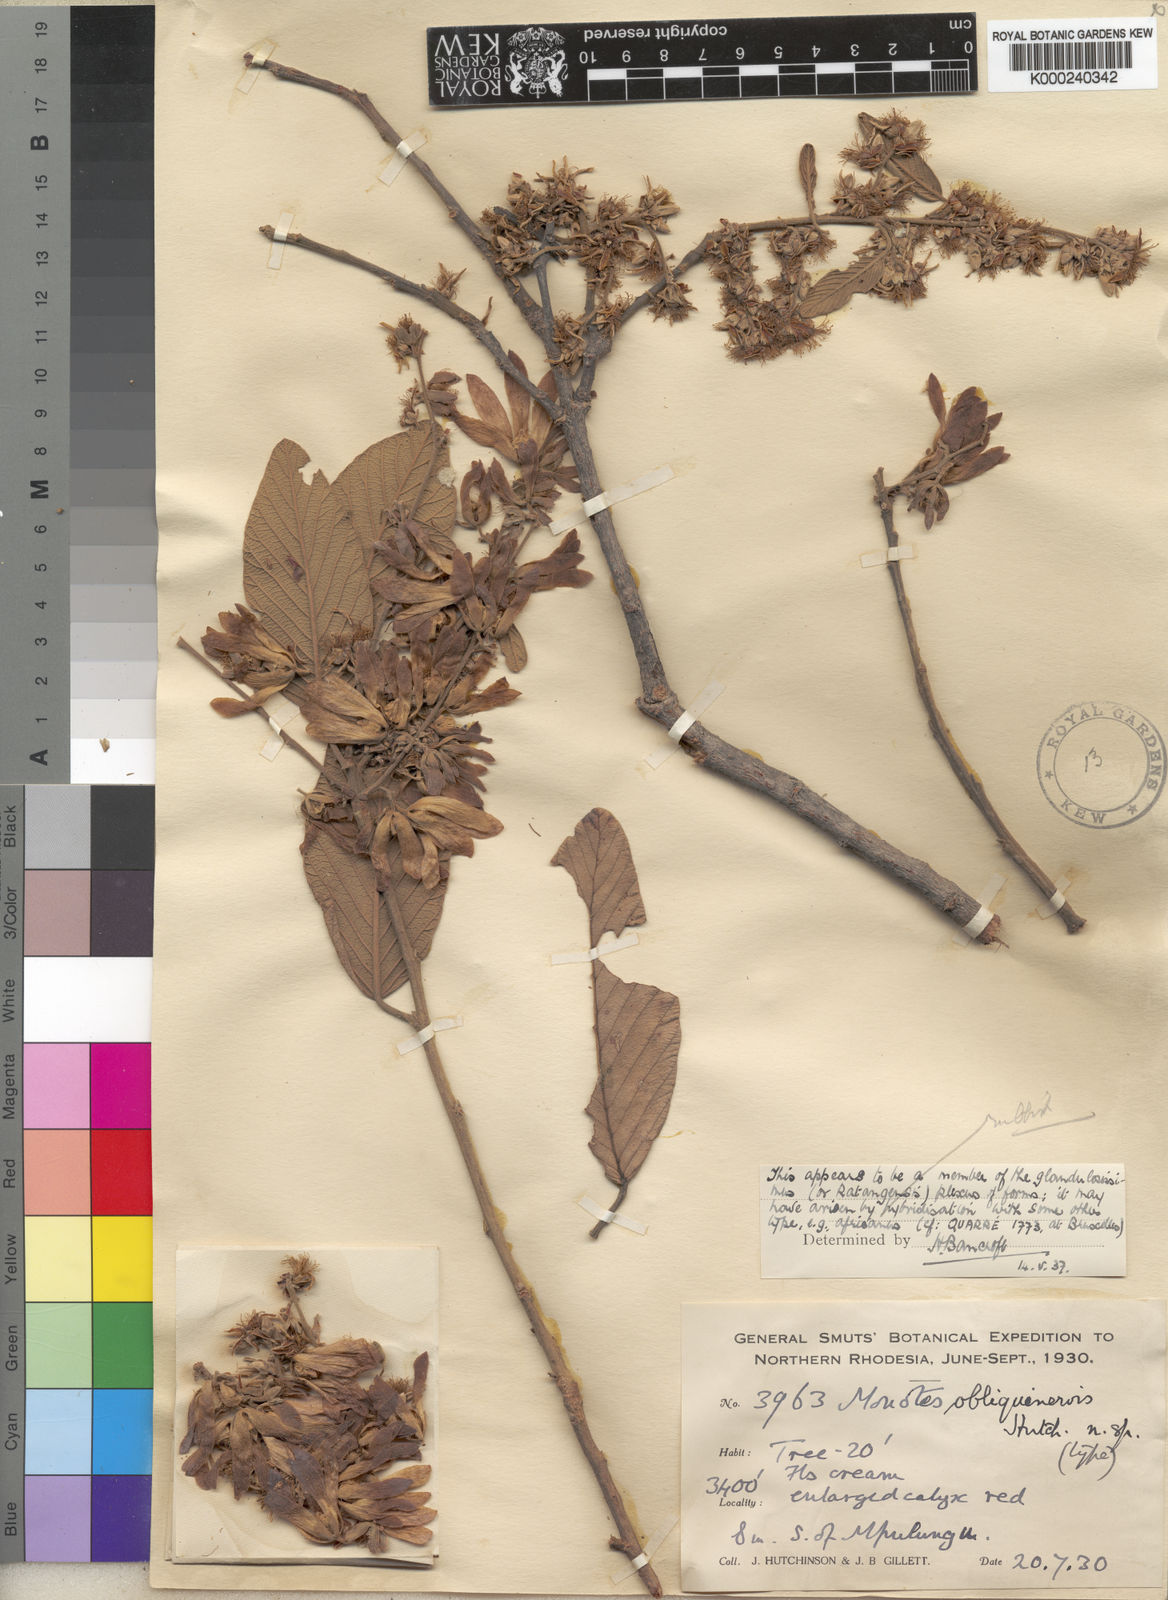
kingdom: Plantae
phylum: Tracheophyta
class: Magnoliopsida
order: Malvales
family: Dipterocarpaceae
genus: Monotes
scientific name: Monotes katangensis
